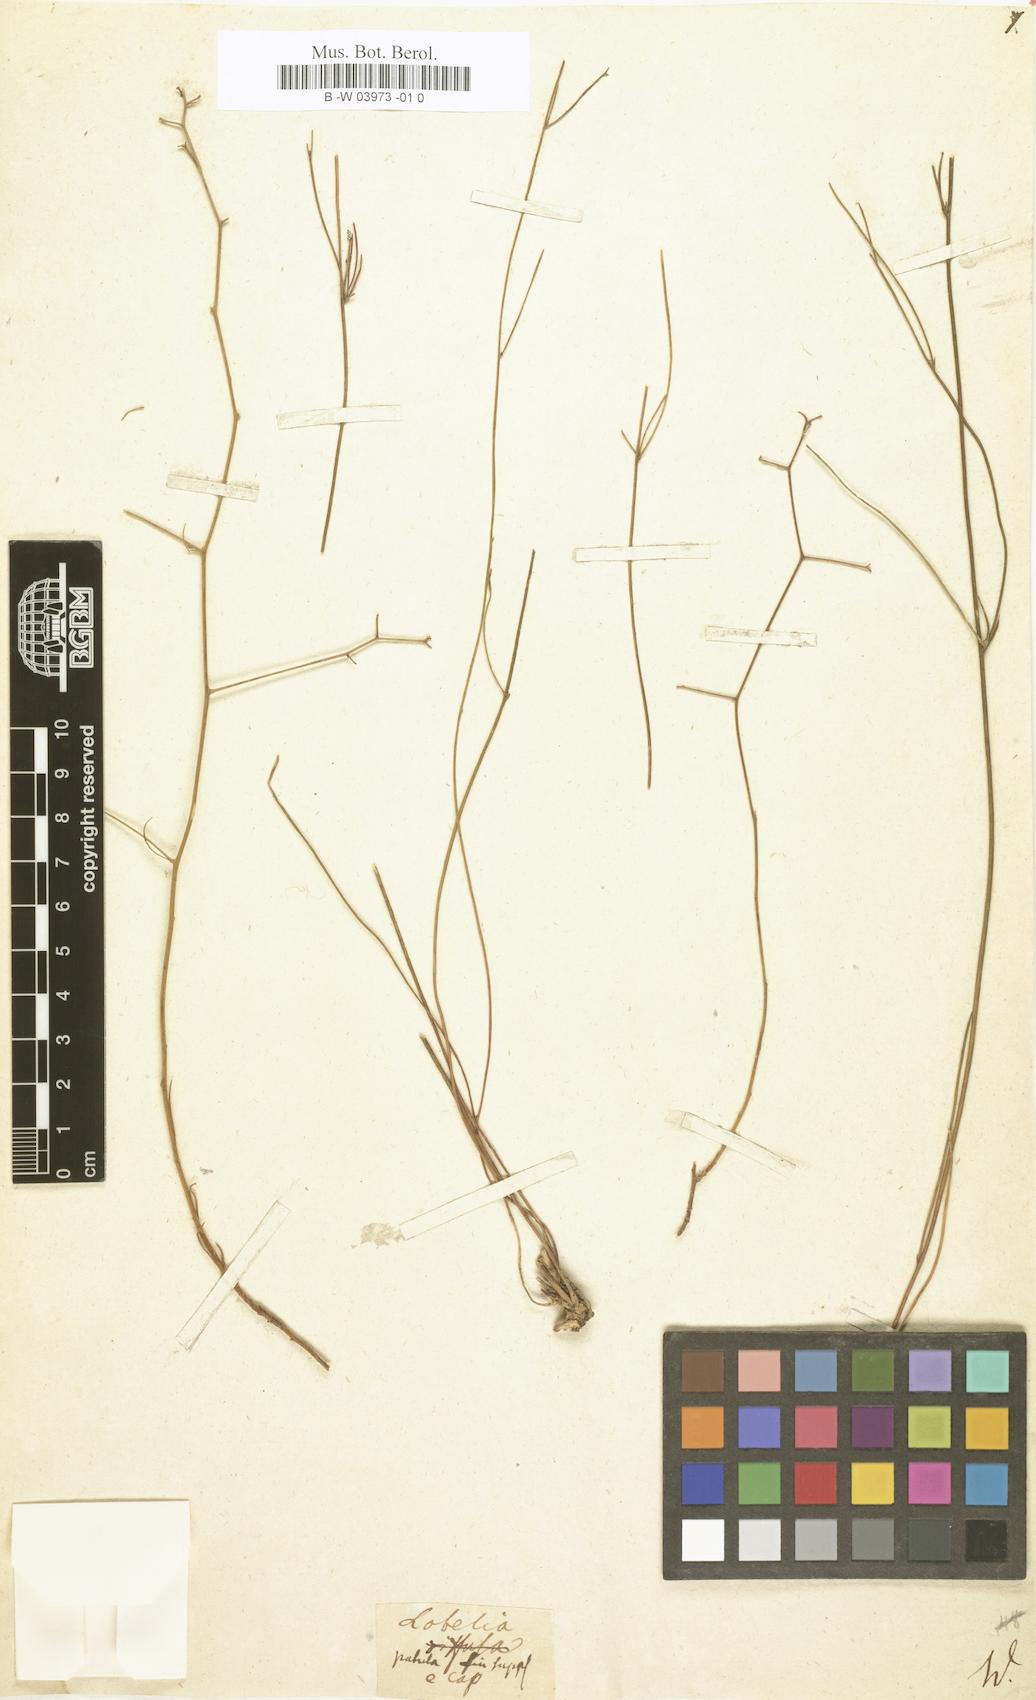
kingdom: Plantae
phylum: Tracheophyta
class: Magnoliopsida
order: Asterales
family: Campanulaceae
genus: Lobelia
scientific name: Lobelia patula
